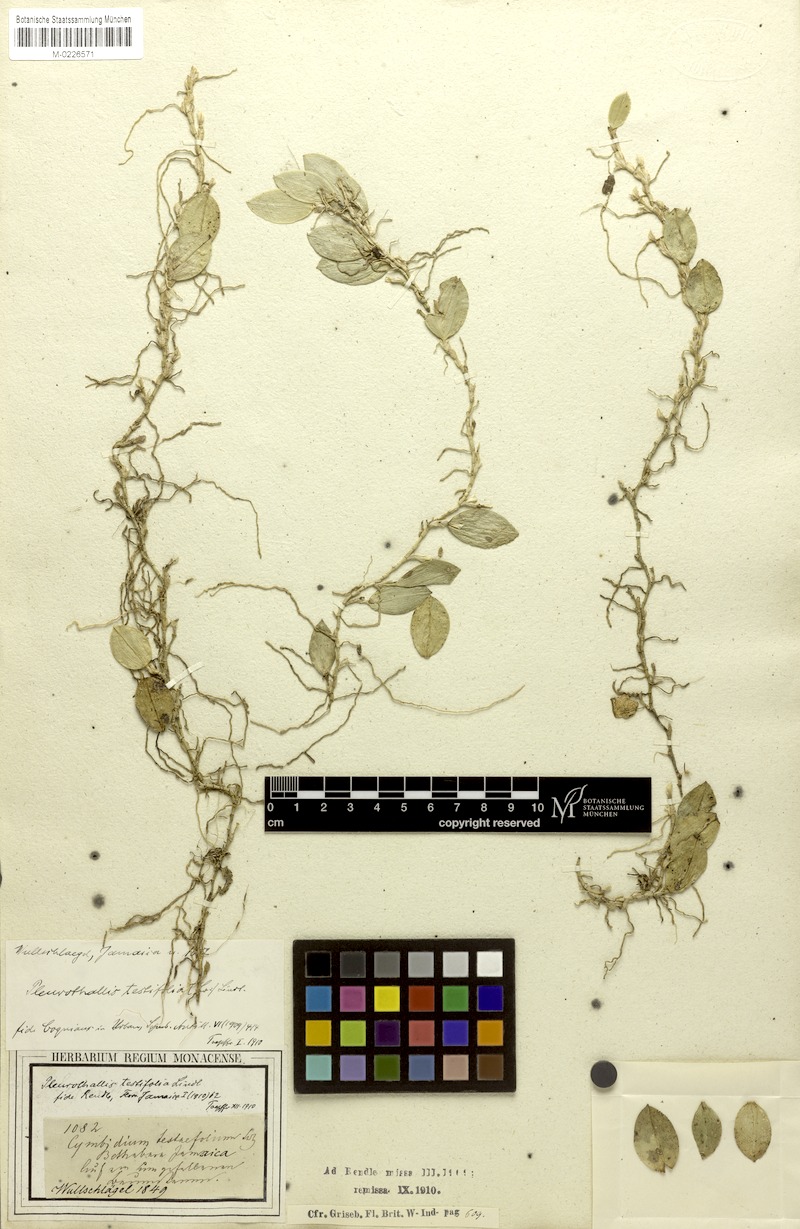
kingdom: Plantae
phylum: Tracheophyta
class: Liliopsida
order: Asparagales
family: Orchidaceae
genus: Acianthera
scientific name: Acianthera testifolia
